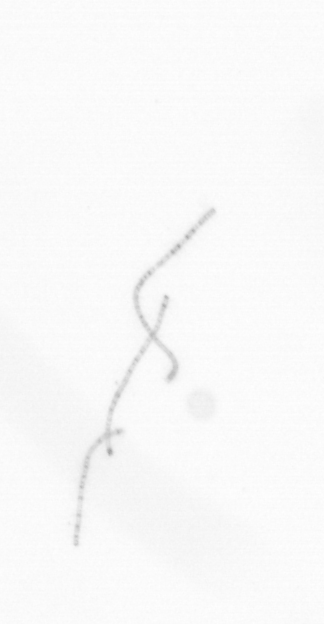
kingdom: Chromista
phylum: Ochrophyta
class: Bacillariophyceae
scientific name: Bacillariophyceae
